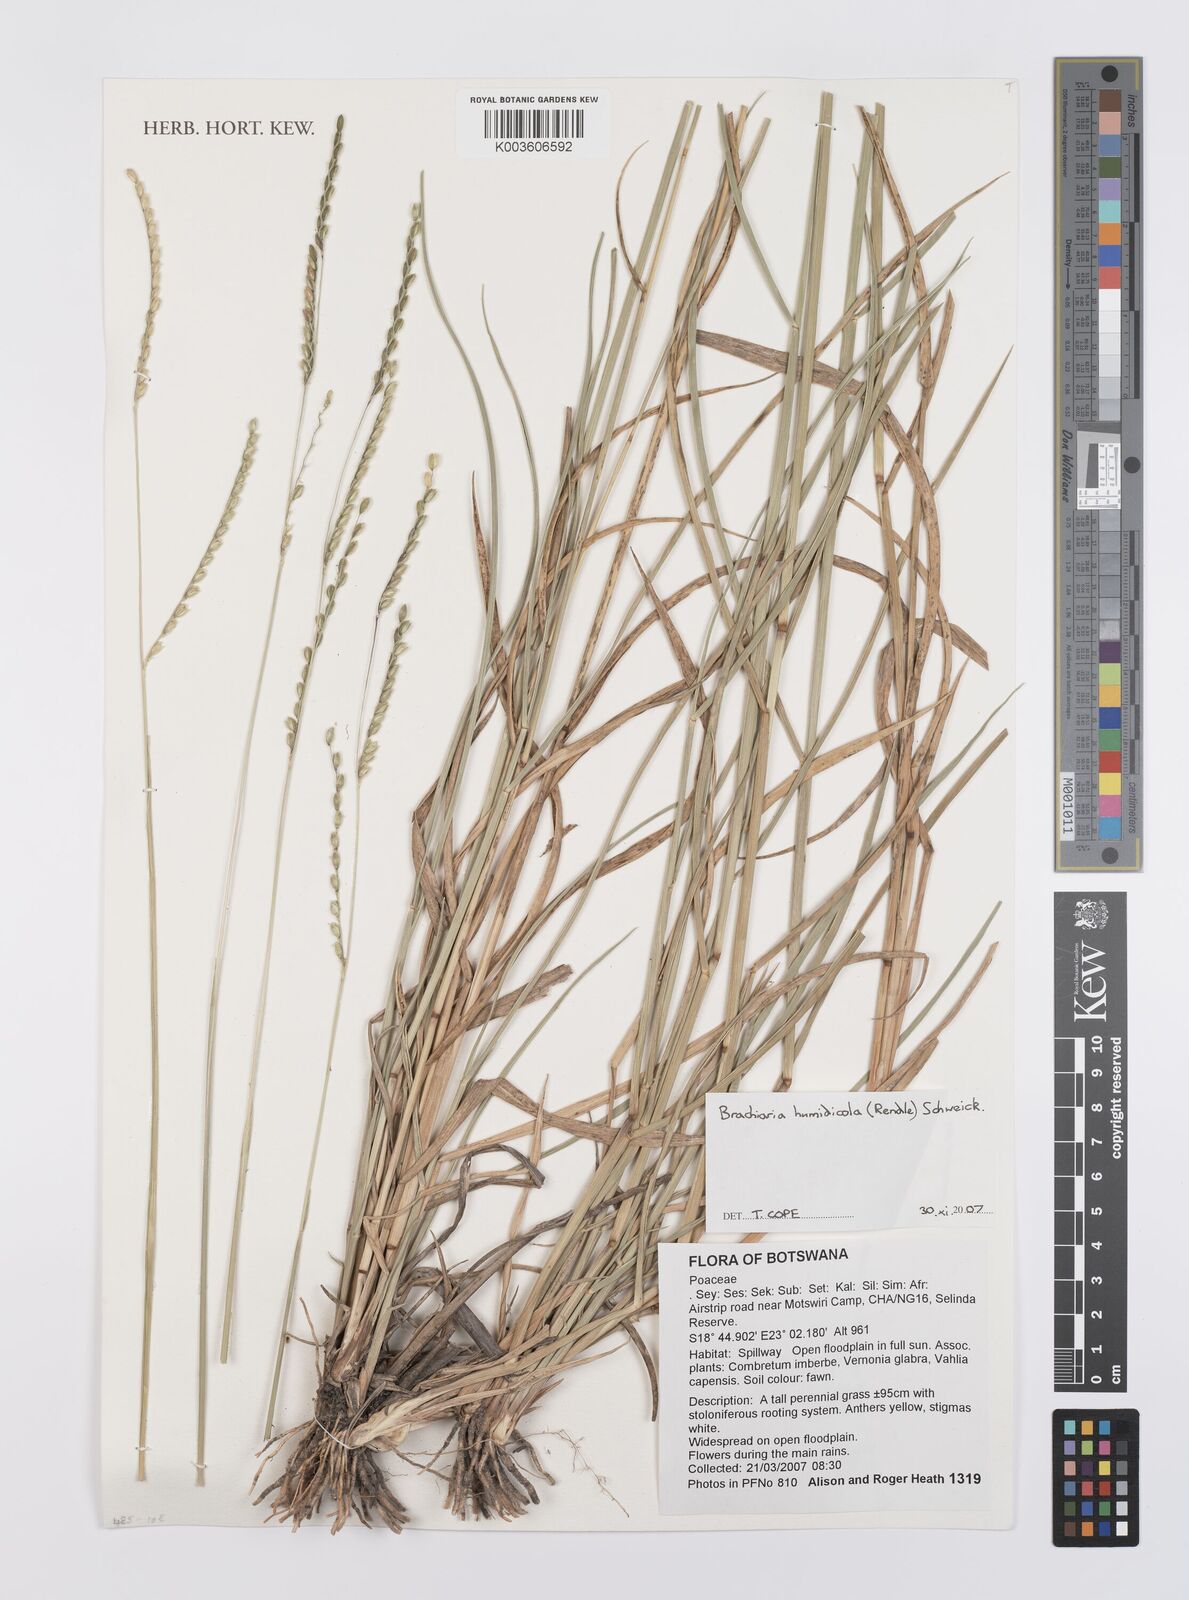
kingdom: Plantae
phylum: Tracheophyta
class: Liliopsida
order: Poales
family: Poaceae
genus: Urochloa
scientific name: Urochloa dictyoneura
